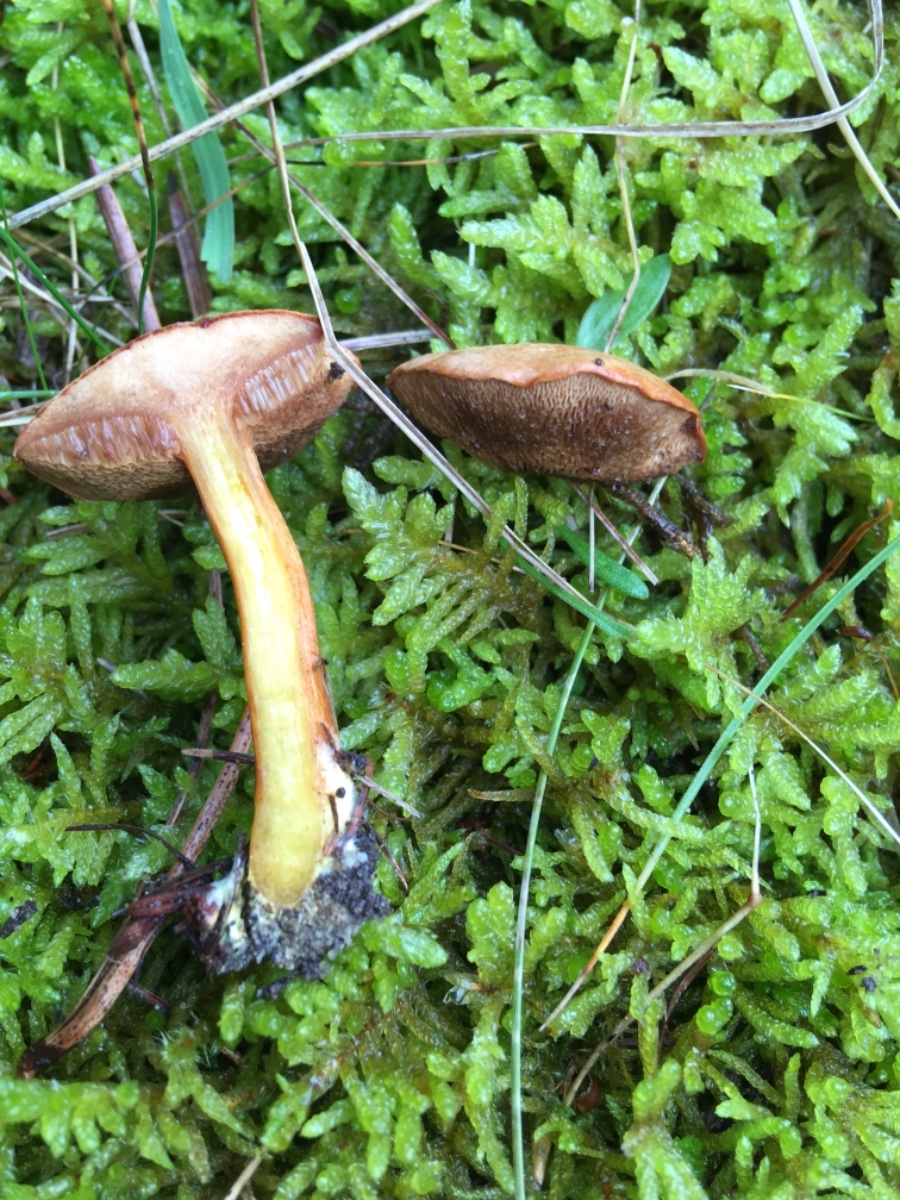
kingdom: Fungi
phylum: Basidiomycota
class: Agaricomycetes
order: Boletales
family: Boletaceae
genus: Chalciporus
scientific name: Chalciporus piperatus
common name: peberrørhat
